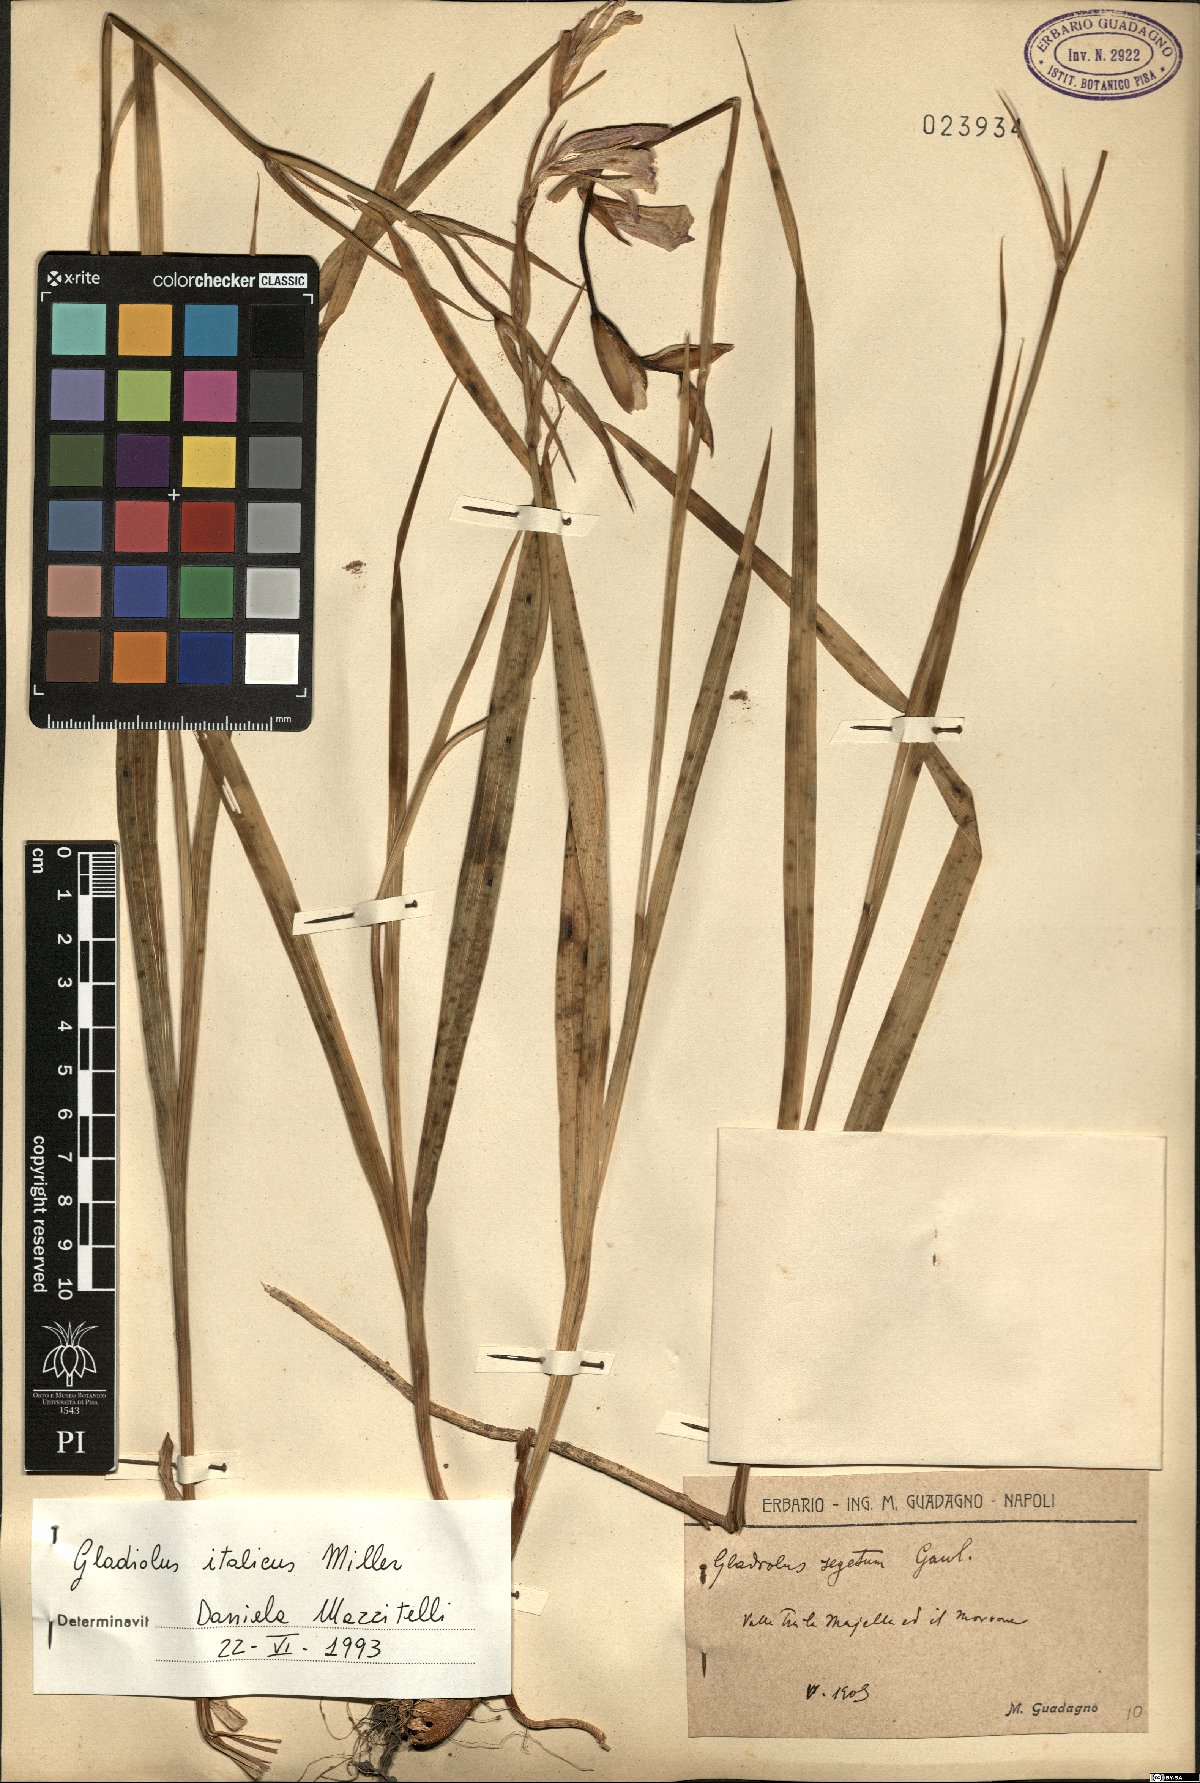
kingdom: Plantae
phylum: Tracheophyta
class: Liliopsida
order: Asparagales
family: Iridaceae
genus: Gladiolus
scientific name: Gladiolus italicus
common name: Field gladiolus
